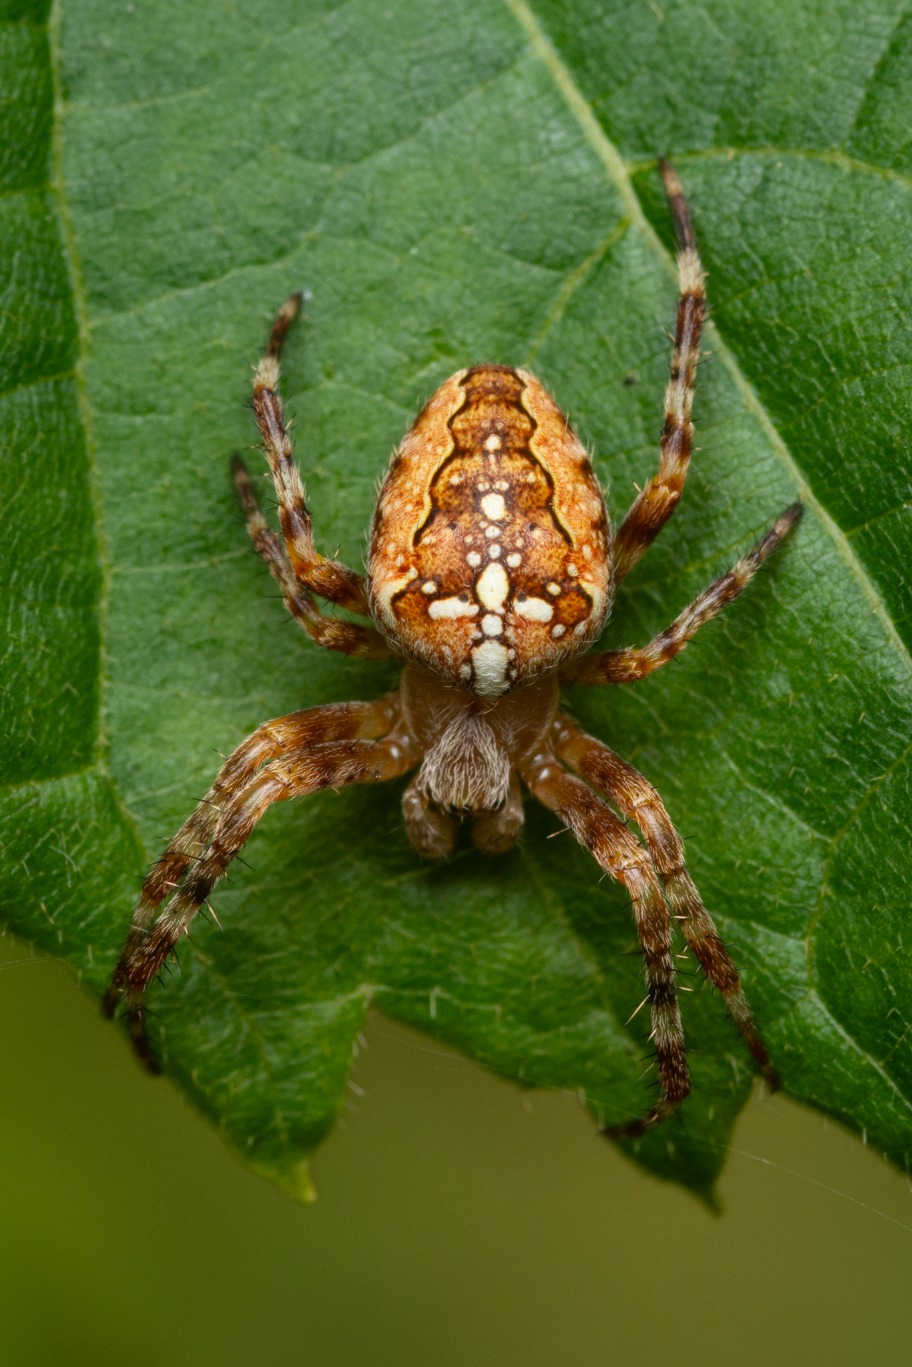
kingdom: Animalia
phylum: Arthropoda
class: Arachnida
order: Araneae
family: Araneidae
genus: Araneus
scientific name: Araneus diadematus
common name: Korsedderkop
